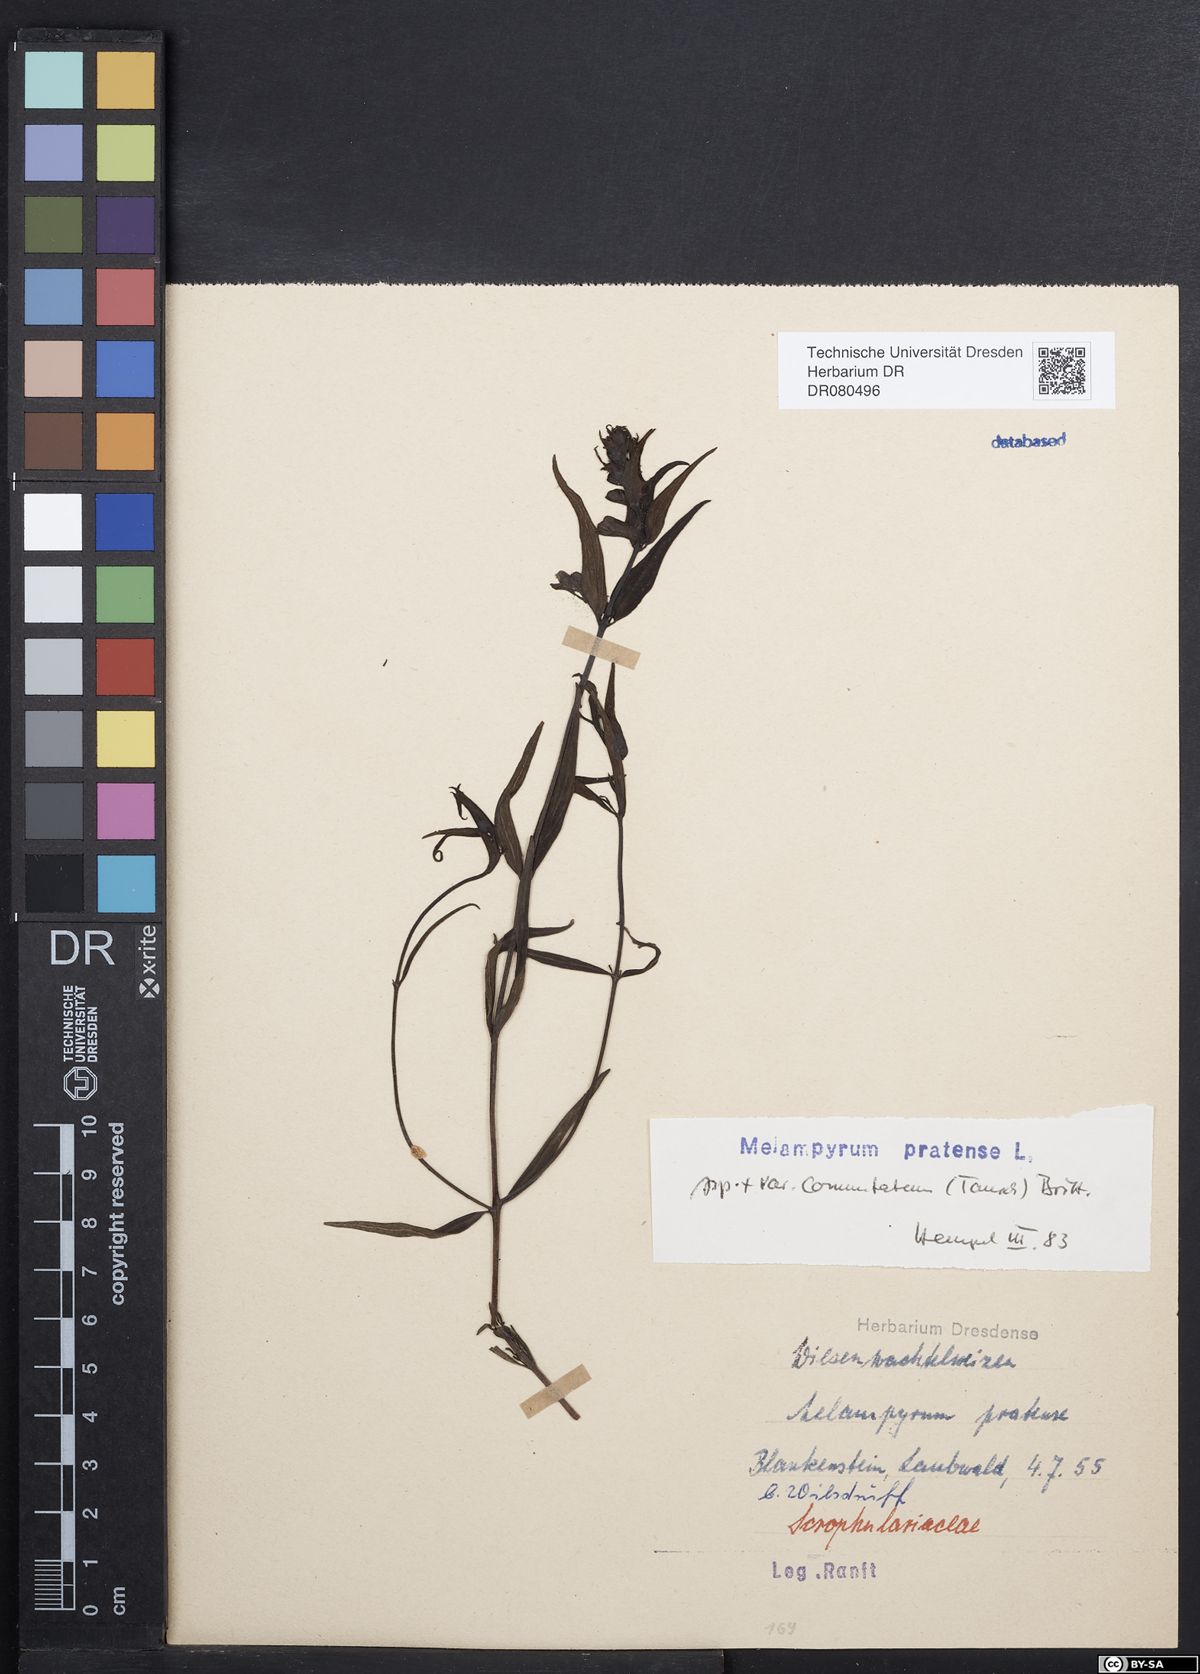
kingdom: Plantae
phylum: Tracheophyta
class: Magnoliopsida
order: Lamiales
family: Orobanchaceae
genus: Melampyrum
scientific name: Melampyrum pratense
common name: Common cow-wheat
